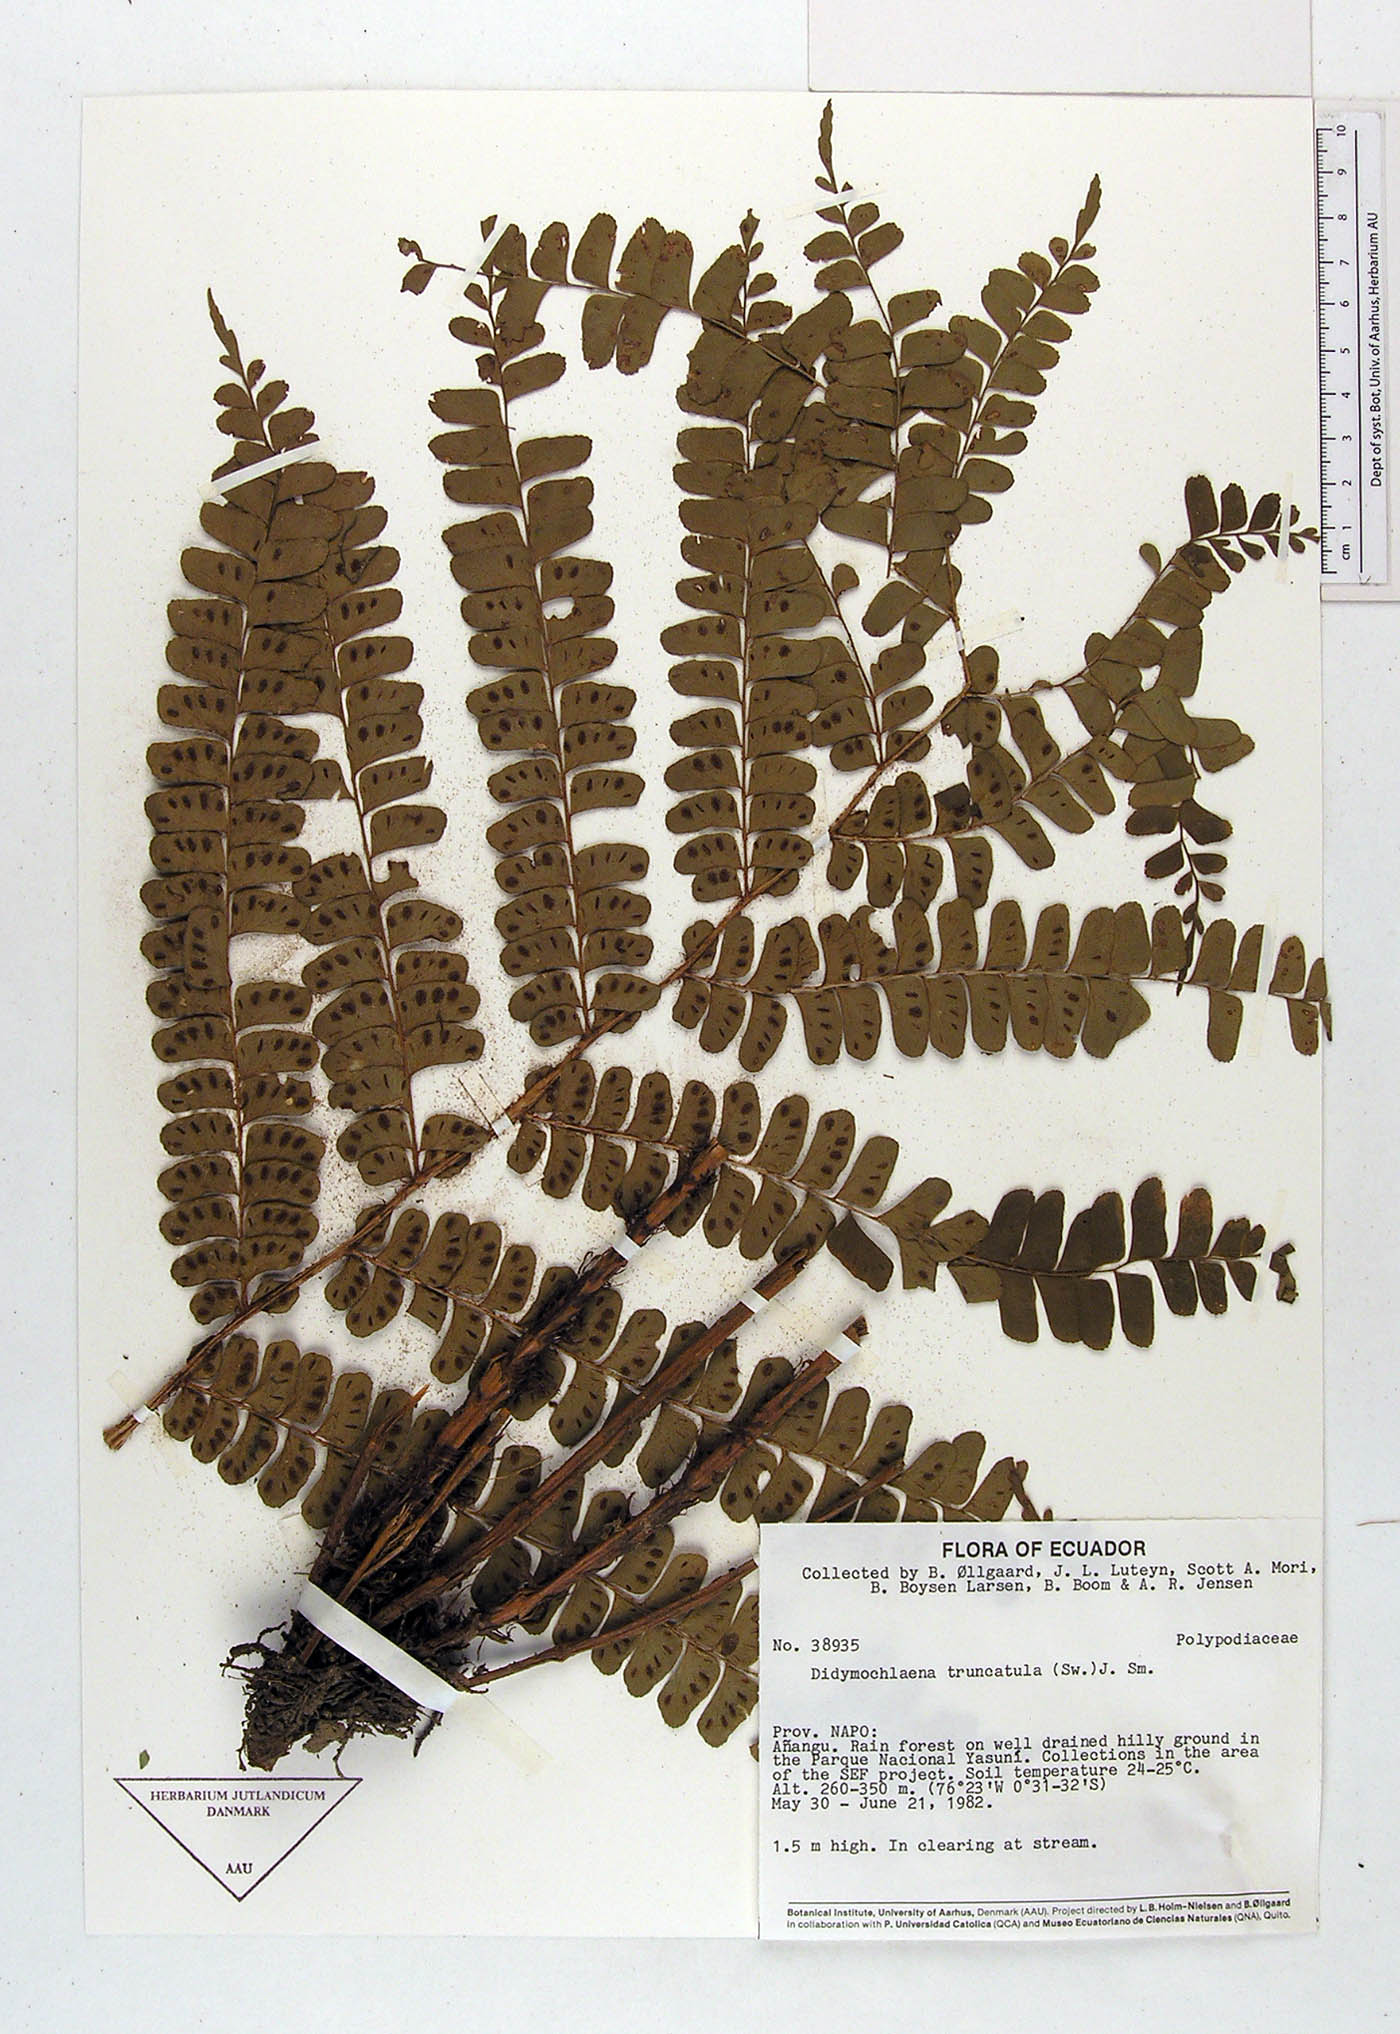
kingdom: Plantae
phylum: Tracheophyta
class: Polypodiopsida
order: Polypodiales
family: Didymochlaenaceae
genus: Didymochlaena
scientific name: Didymochlaena truncatula
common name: Mahogany fern
